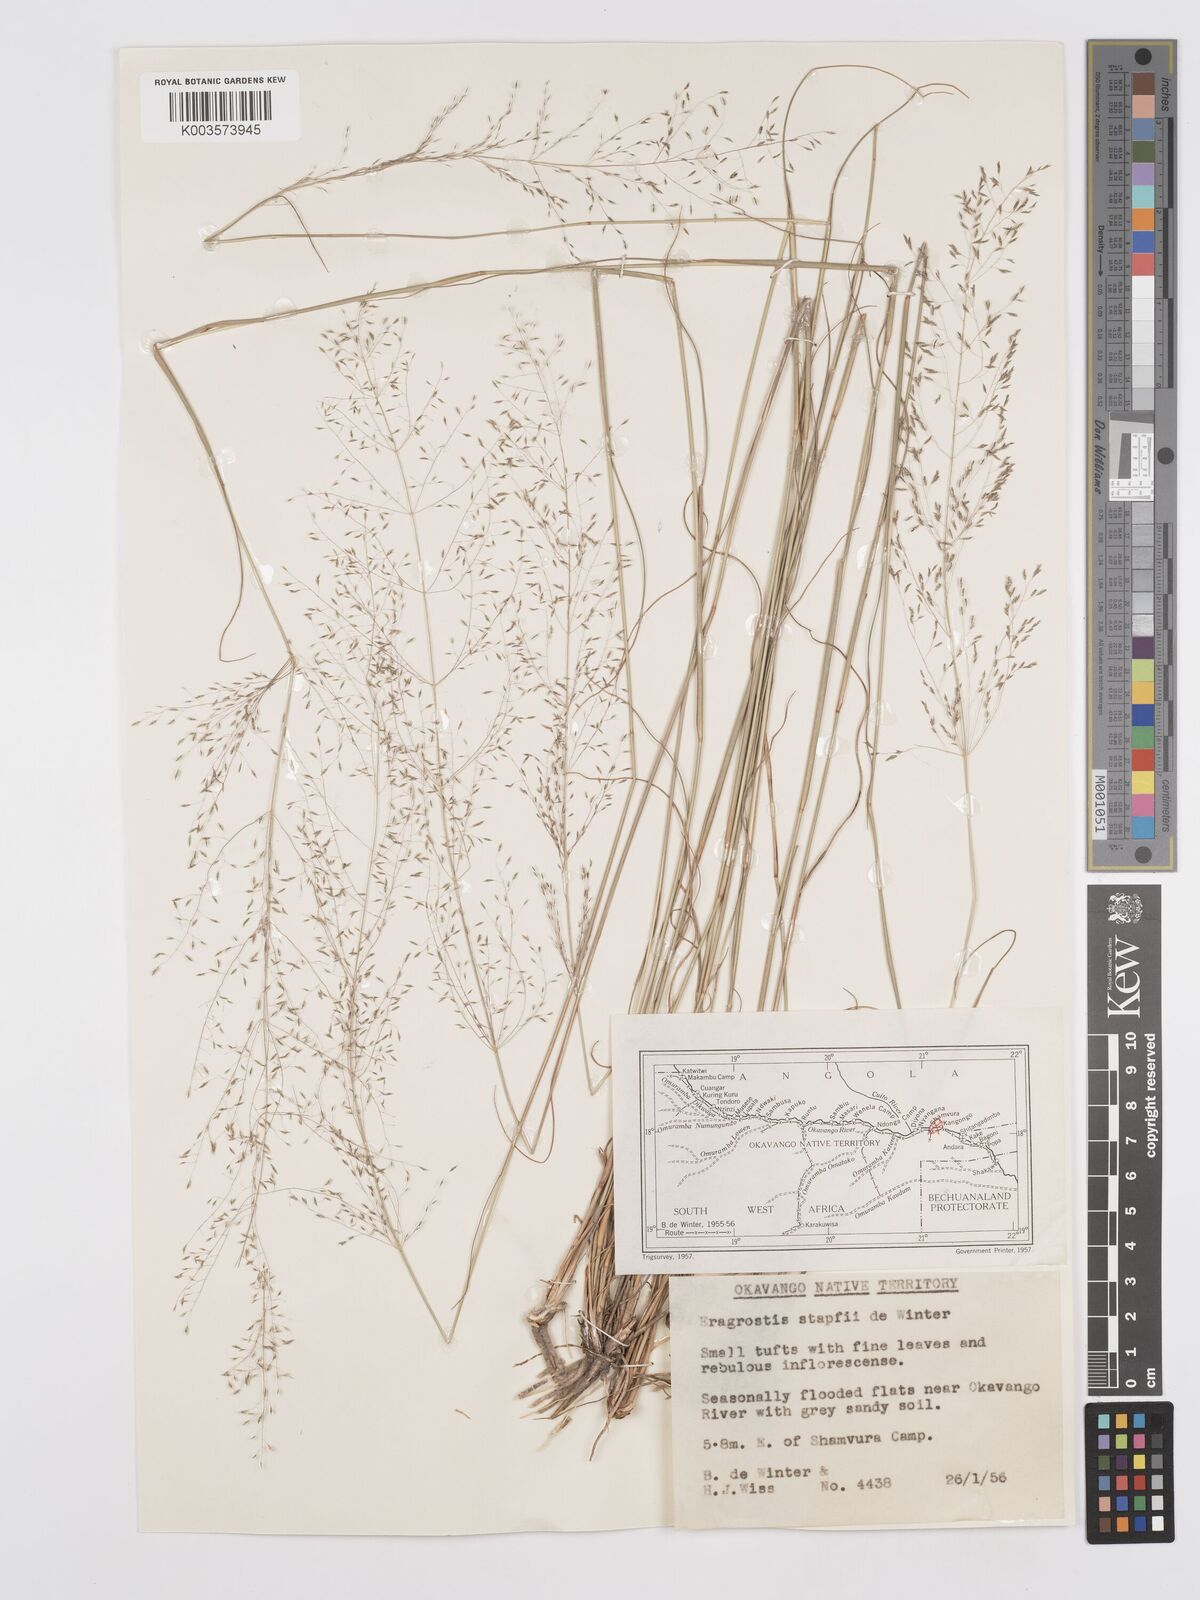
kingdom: Plantae
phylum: Tracheophyta
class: Liliopsida
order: Poales
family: Poaceae
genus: Eragrostis
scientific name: Eragrostis stapfii
